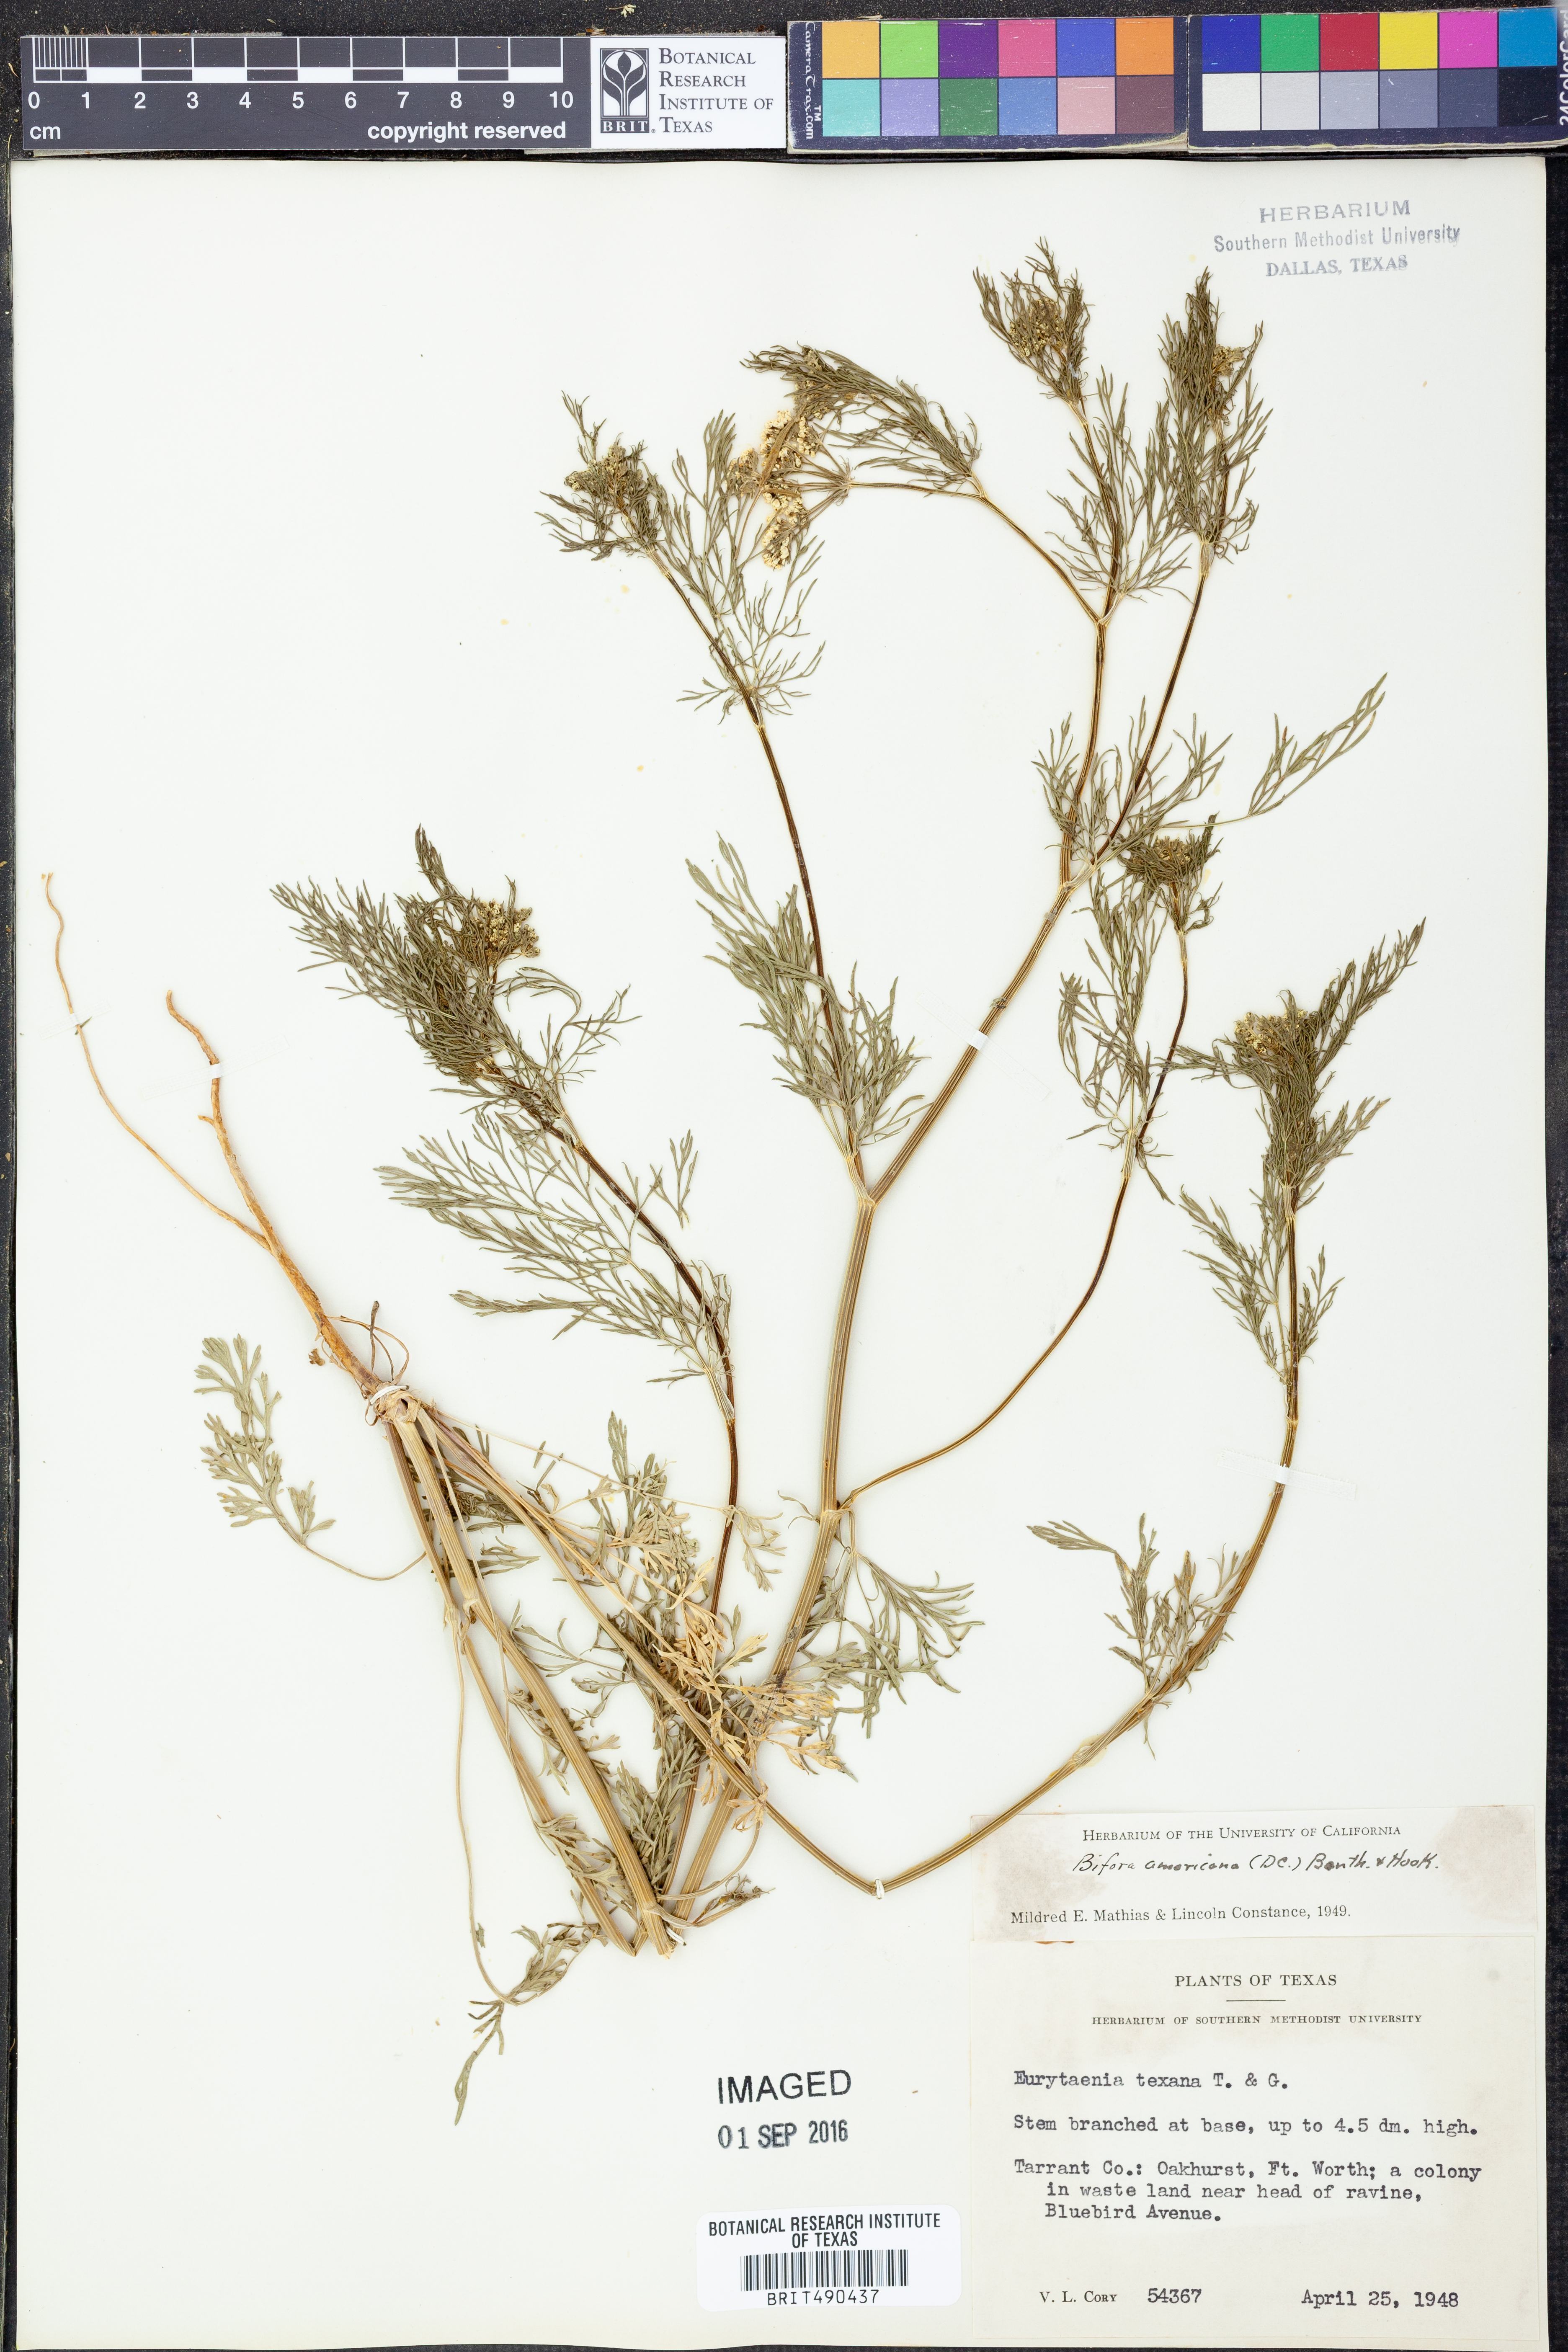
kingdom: Plantae
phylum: Tracheophyta
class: Magnoliopsida
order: Apiales
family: Apiaceae
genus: Atrema
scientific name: Atrema americanum
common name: Prairie-bishop
